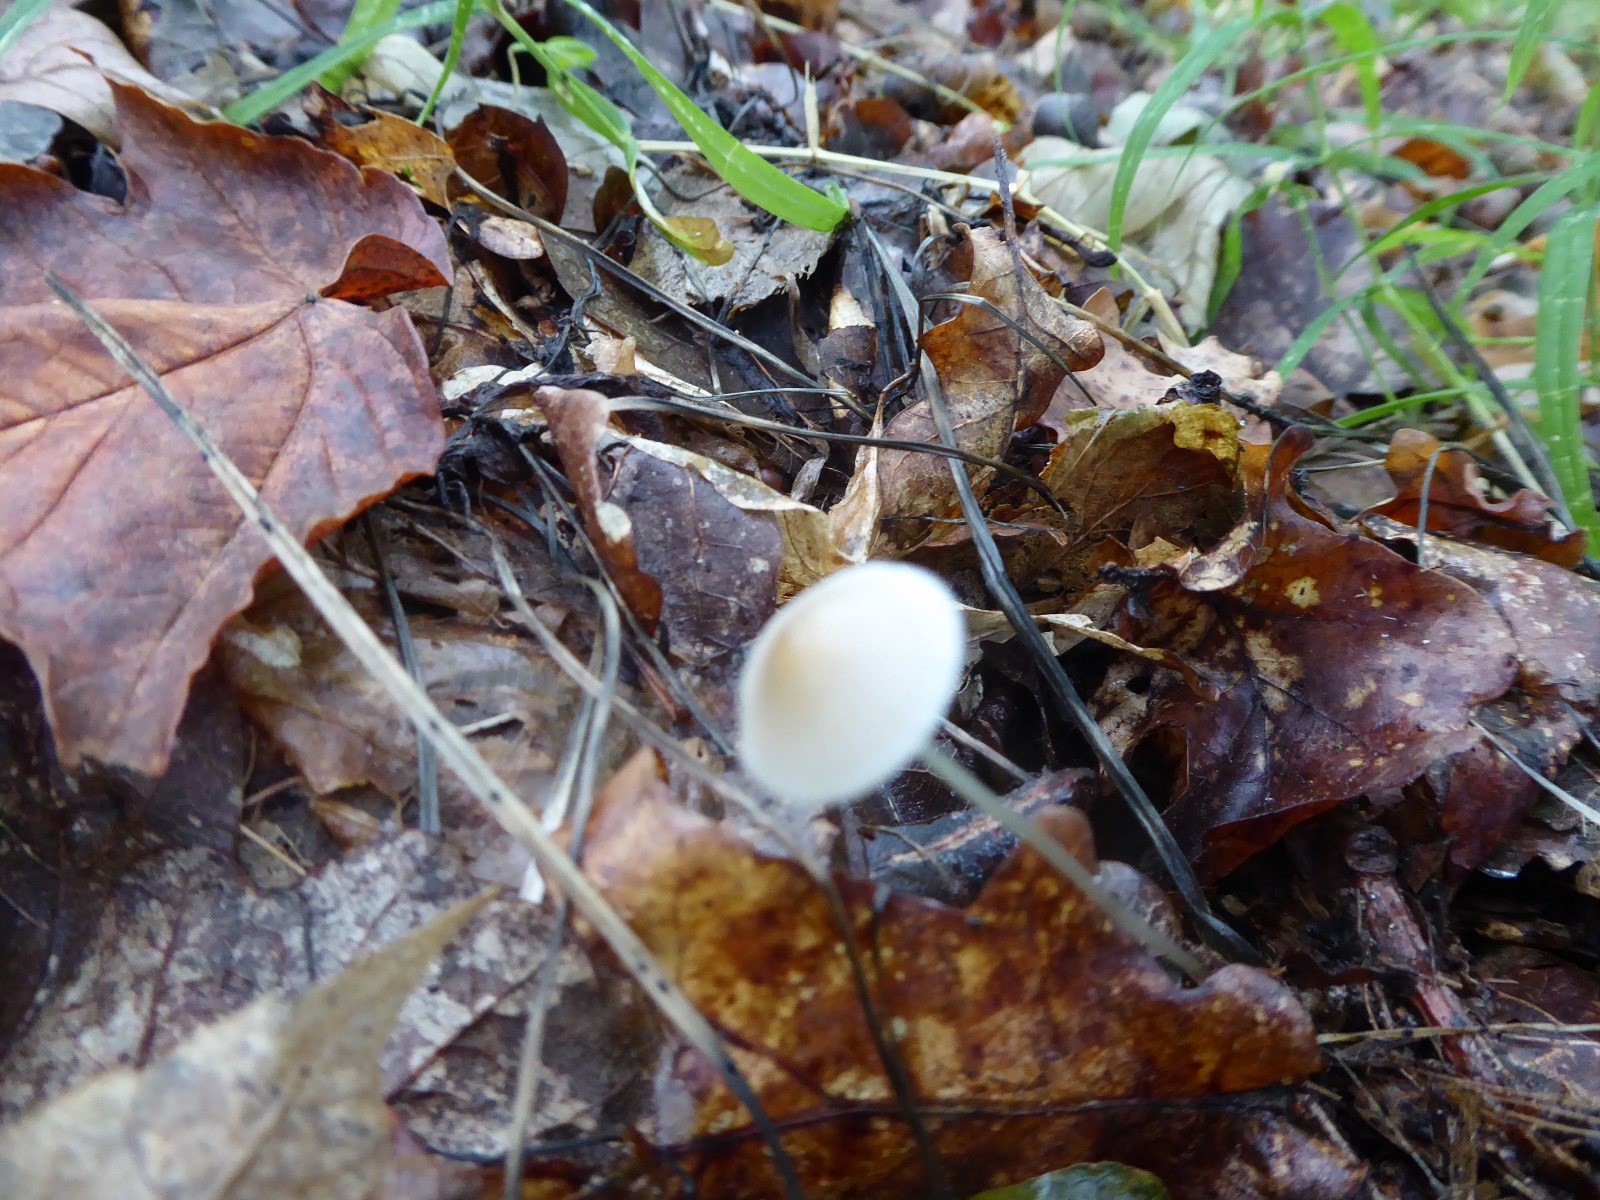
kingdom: Fungi
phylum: Basidiomycota
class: Agaricomycetes
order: Agaricales
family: Mycenaceae
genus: Mycena
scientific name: Mycena vitilis
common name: blankstokket huesvamp
